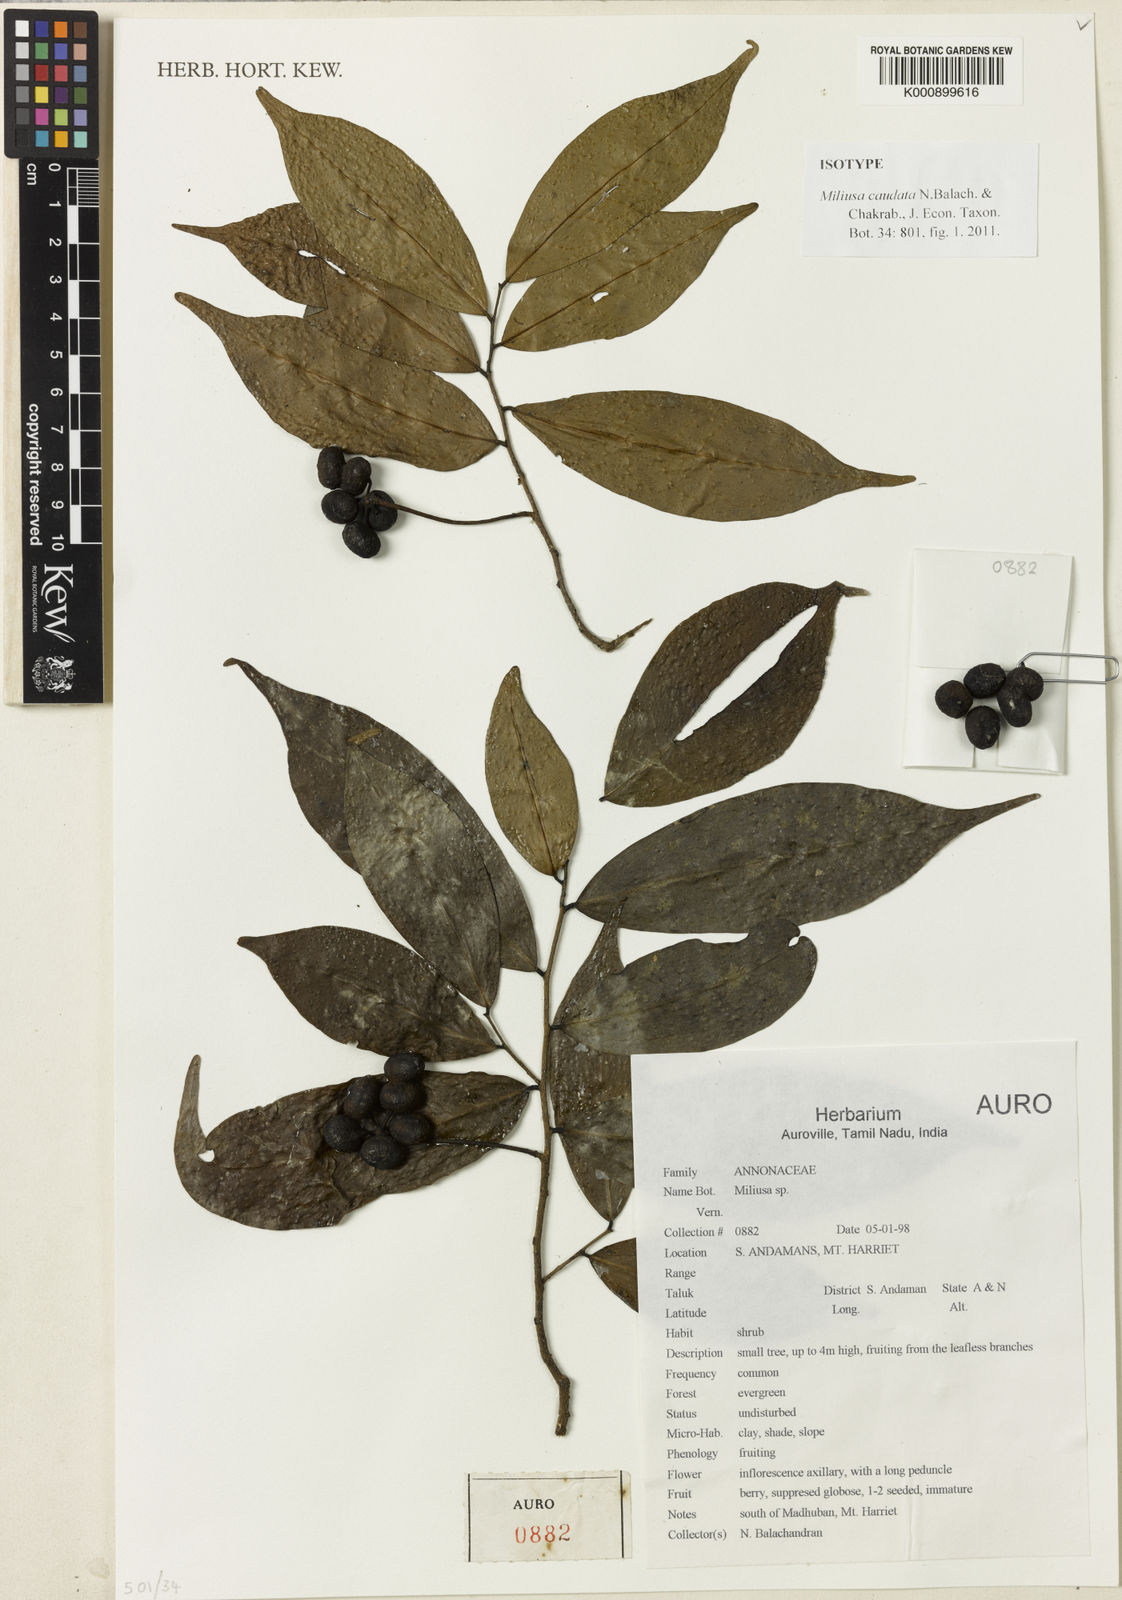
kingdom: Plantae
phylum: Tracheophyta
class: Magnoliopsida
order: Magnoliales
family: Annonaceae
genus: Miliusa
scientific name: Miliusa
